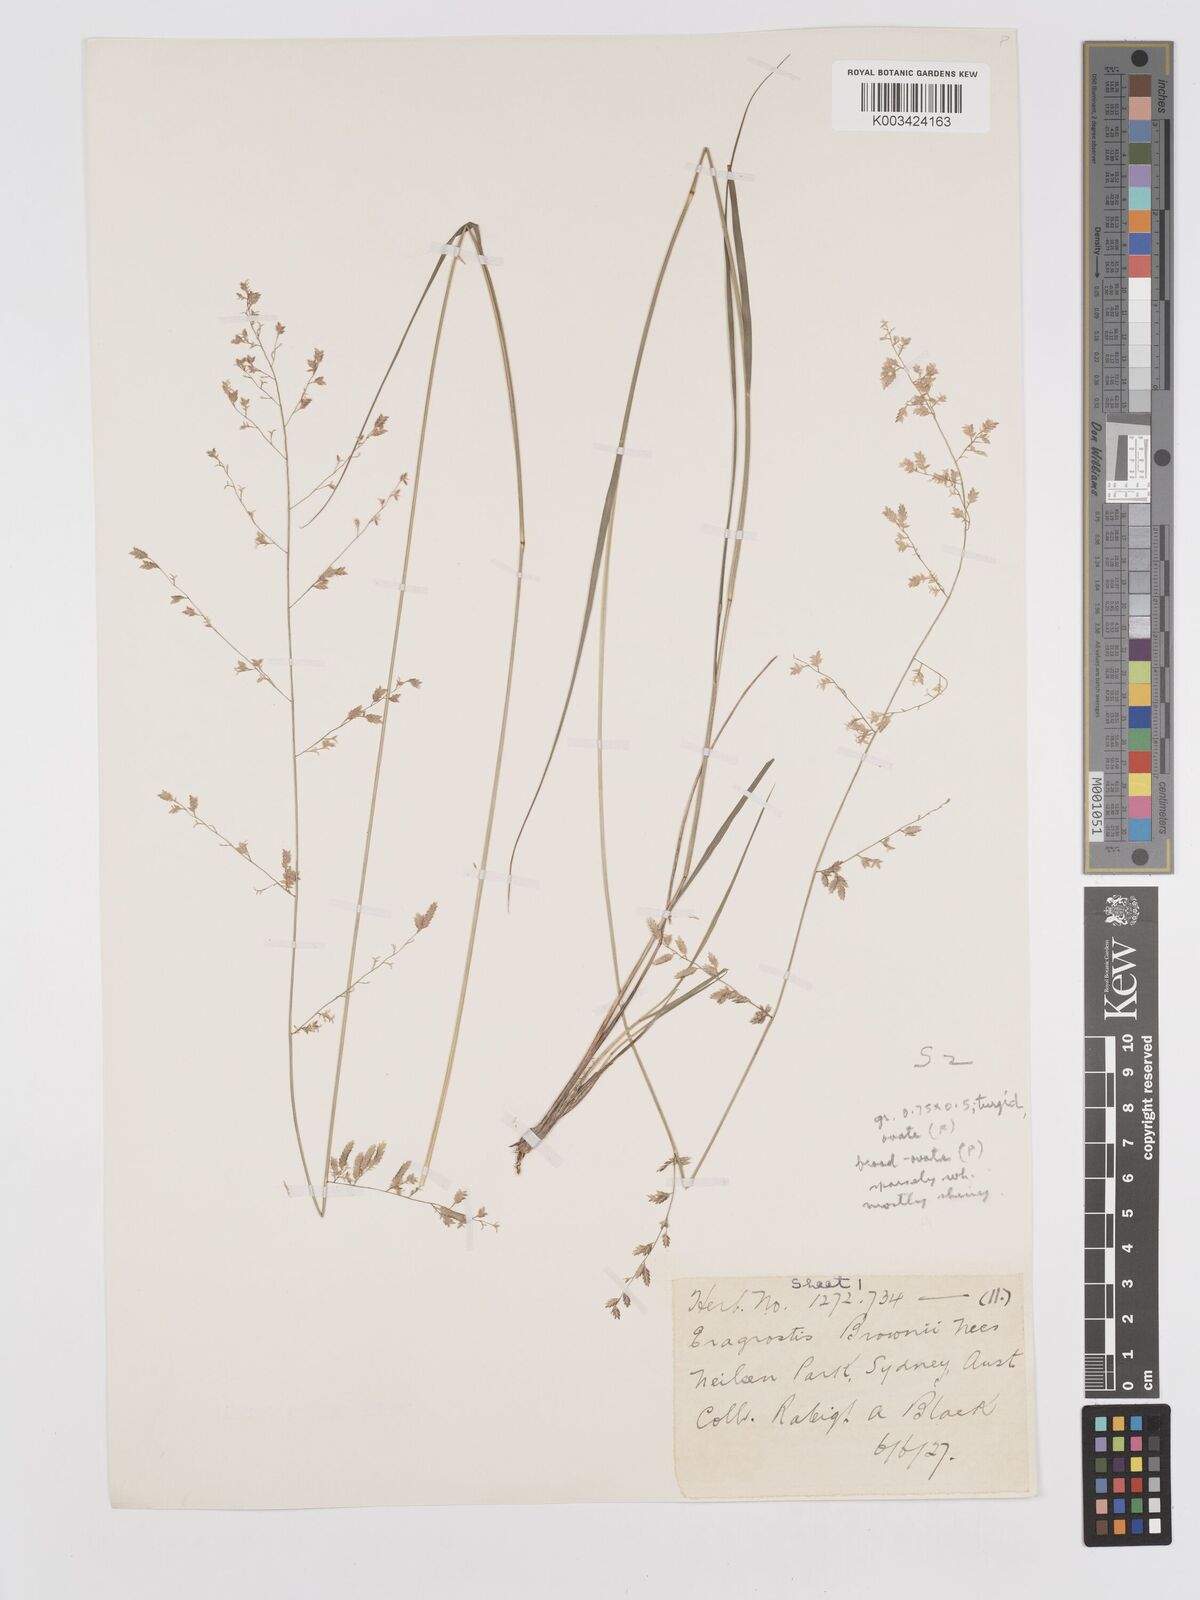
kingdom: Plantae
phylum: Tracheophyta
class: Liliopsida
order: Poales
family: Poaceae
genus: Eragrostis
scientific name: Eragrostis brownii
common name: Lovegrass
